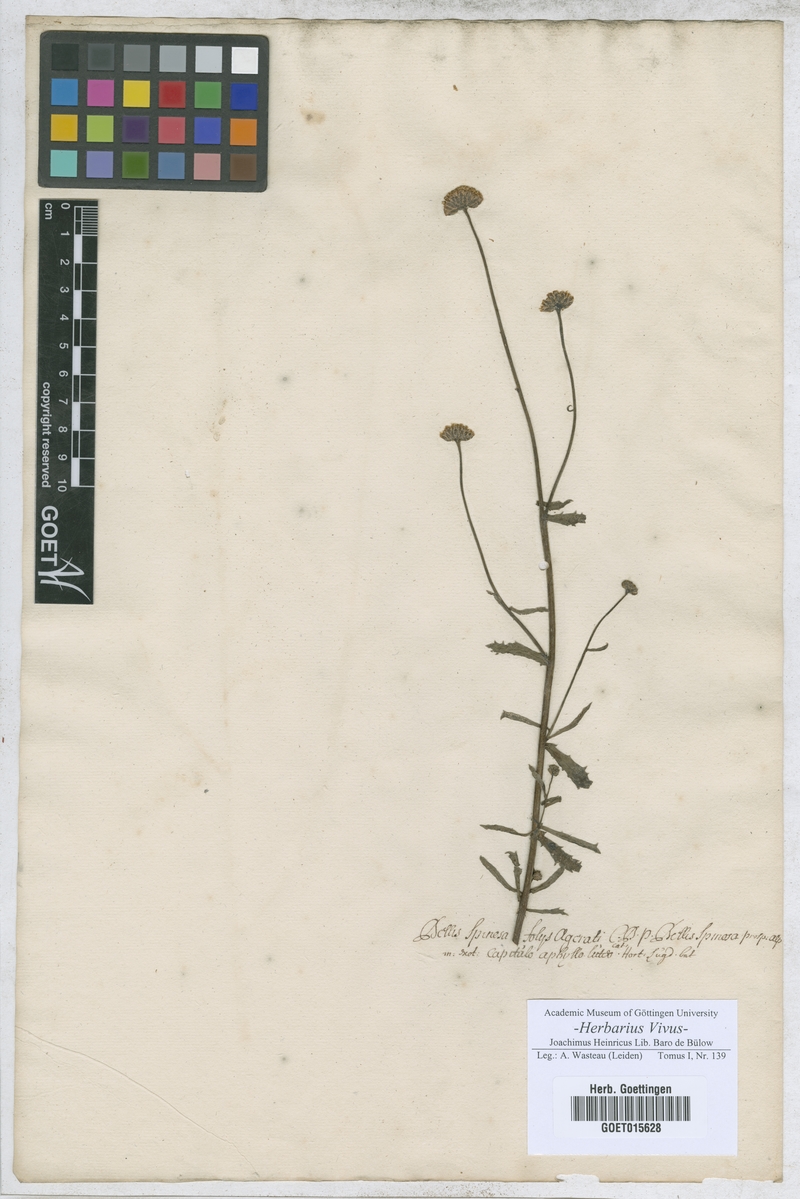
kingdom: Plantae
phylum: Tracheophyta
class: Magnoliopsida
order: Asterales
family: Asteraceae
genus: Bellis
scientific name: Bellis
